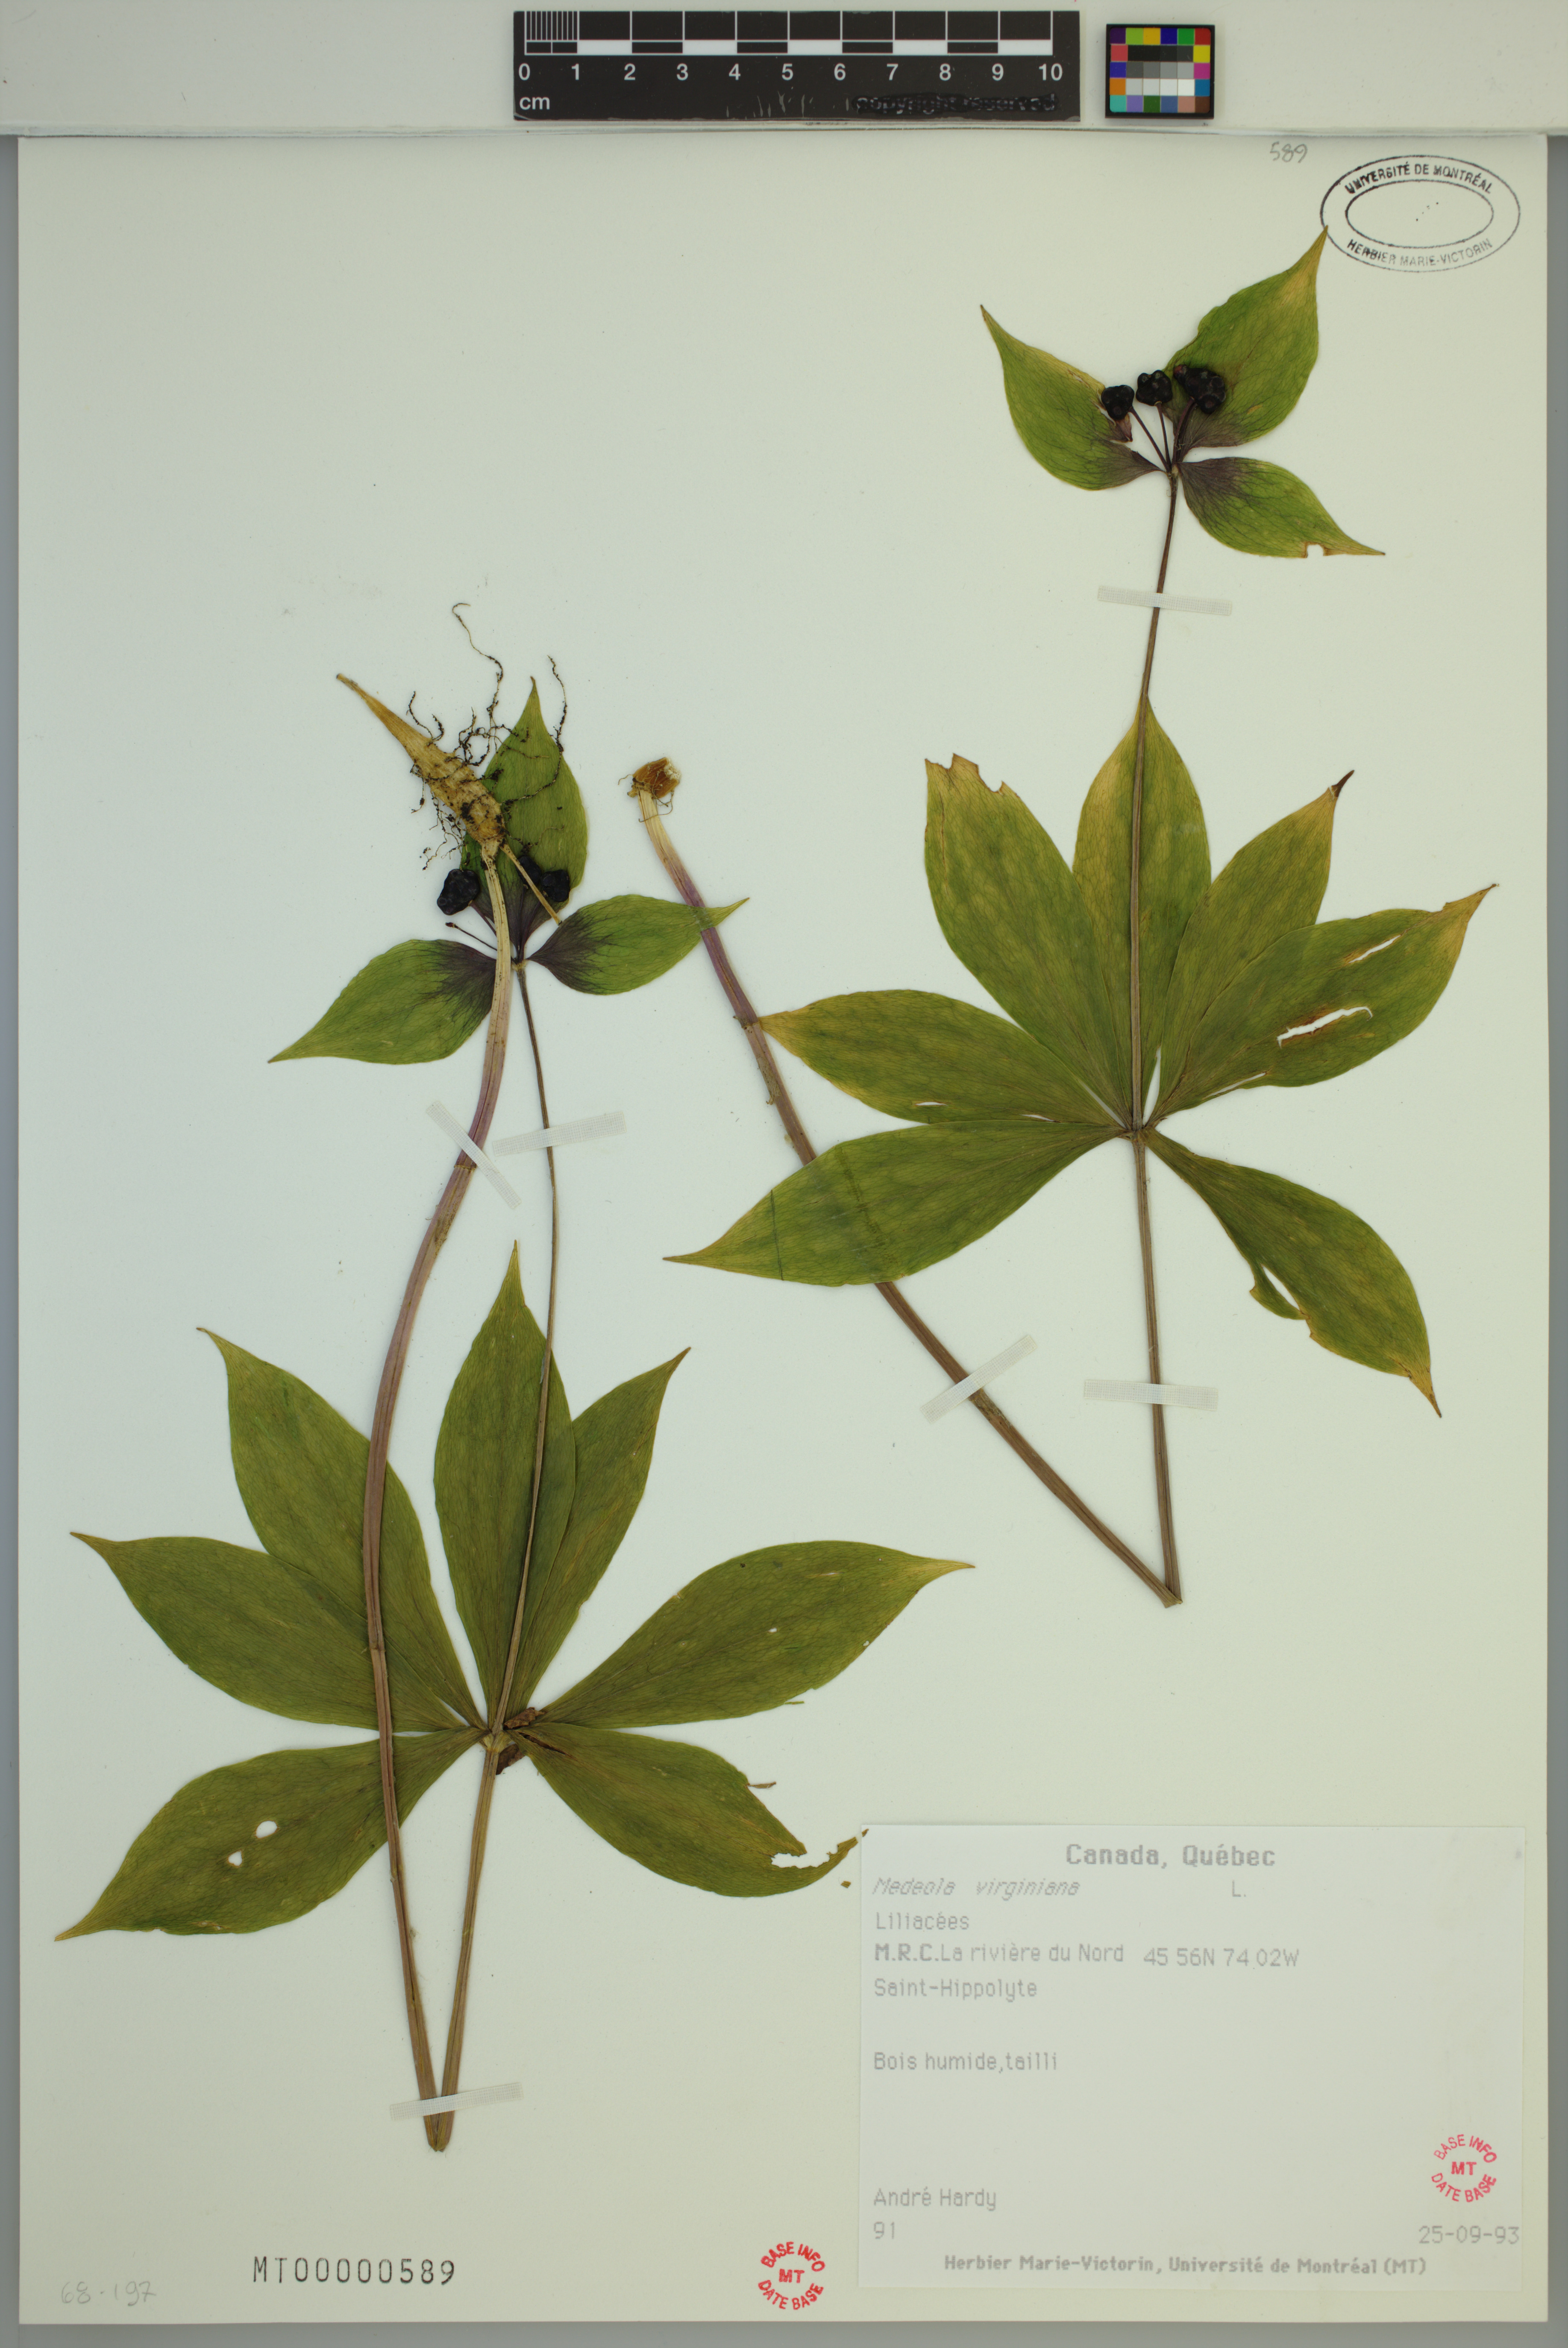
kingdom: Plantae
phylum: Tracheophyta
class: Liliopsida
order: Liliales
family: Liliaceae
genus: Medeola
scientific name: Medeola virginiana
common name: Indian cucumber-root
